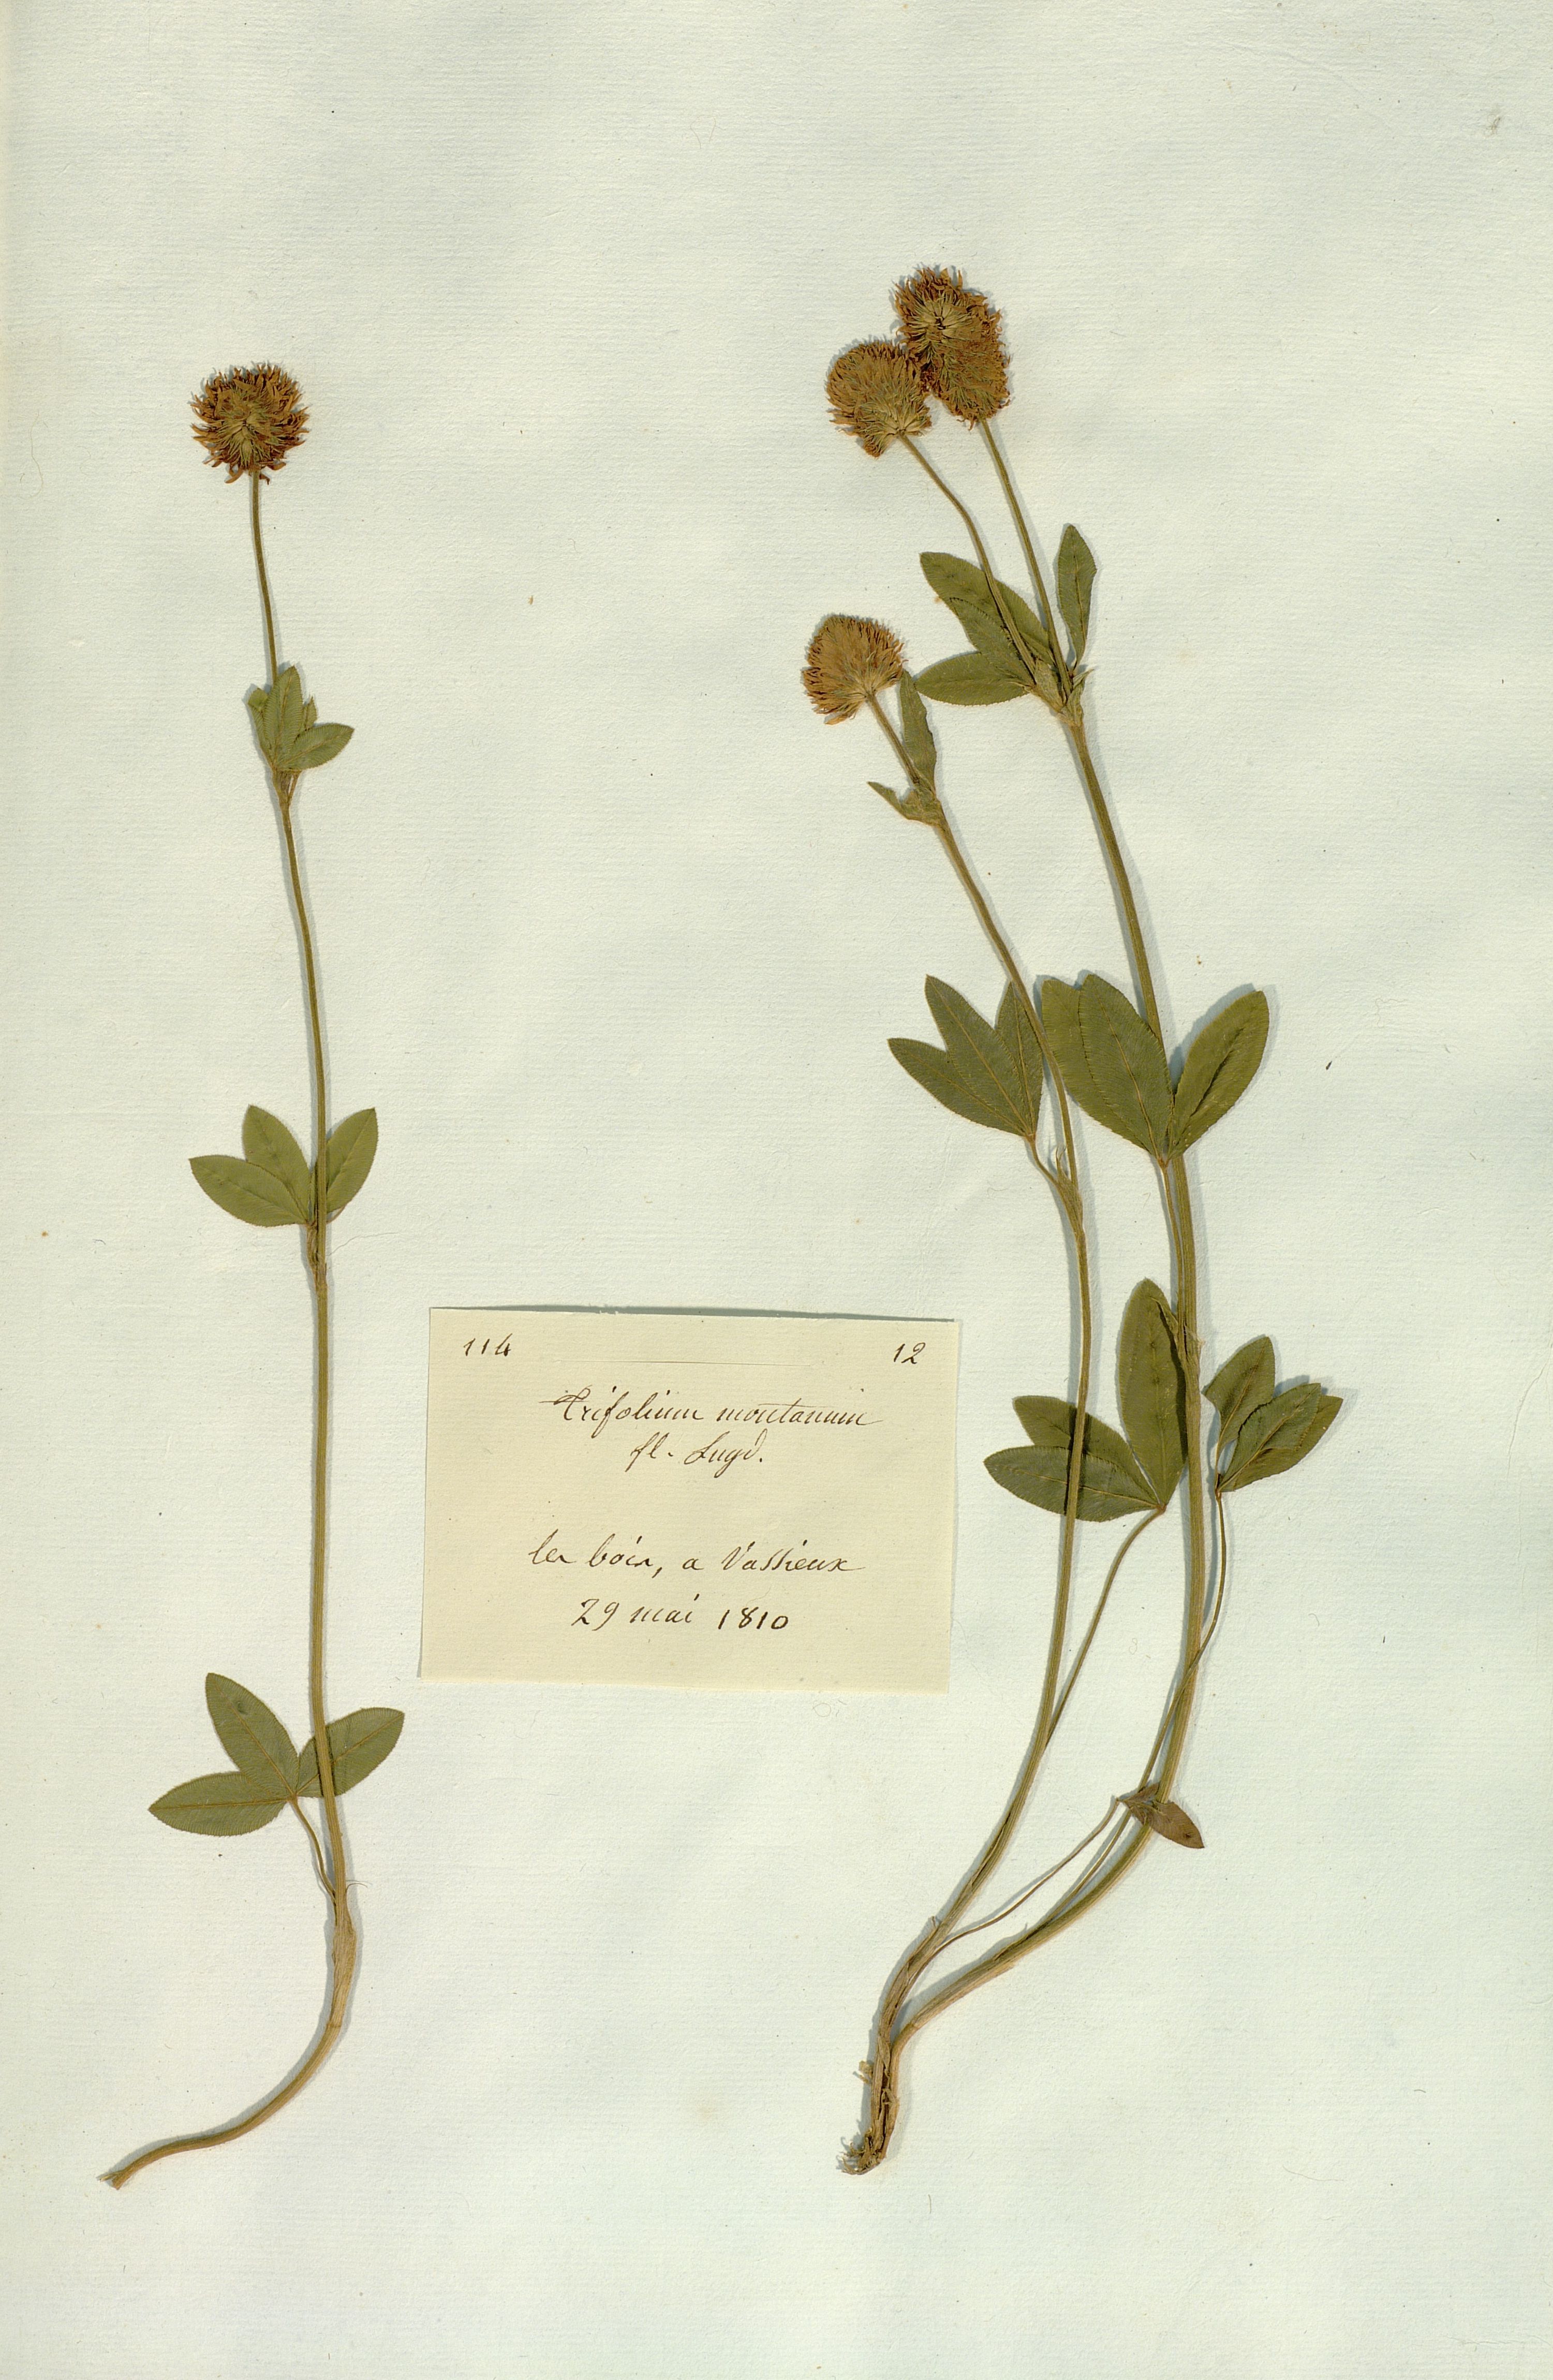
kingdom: Plantae
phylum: Tracheophyta
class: Magnoliopsida
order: Fabales
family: Fabaceae
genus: Trifolium
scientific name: Trifolium montanum
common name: Mountain clover
